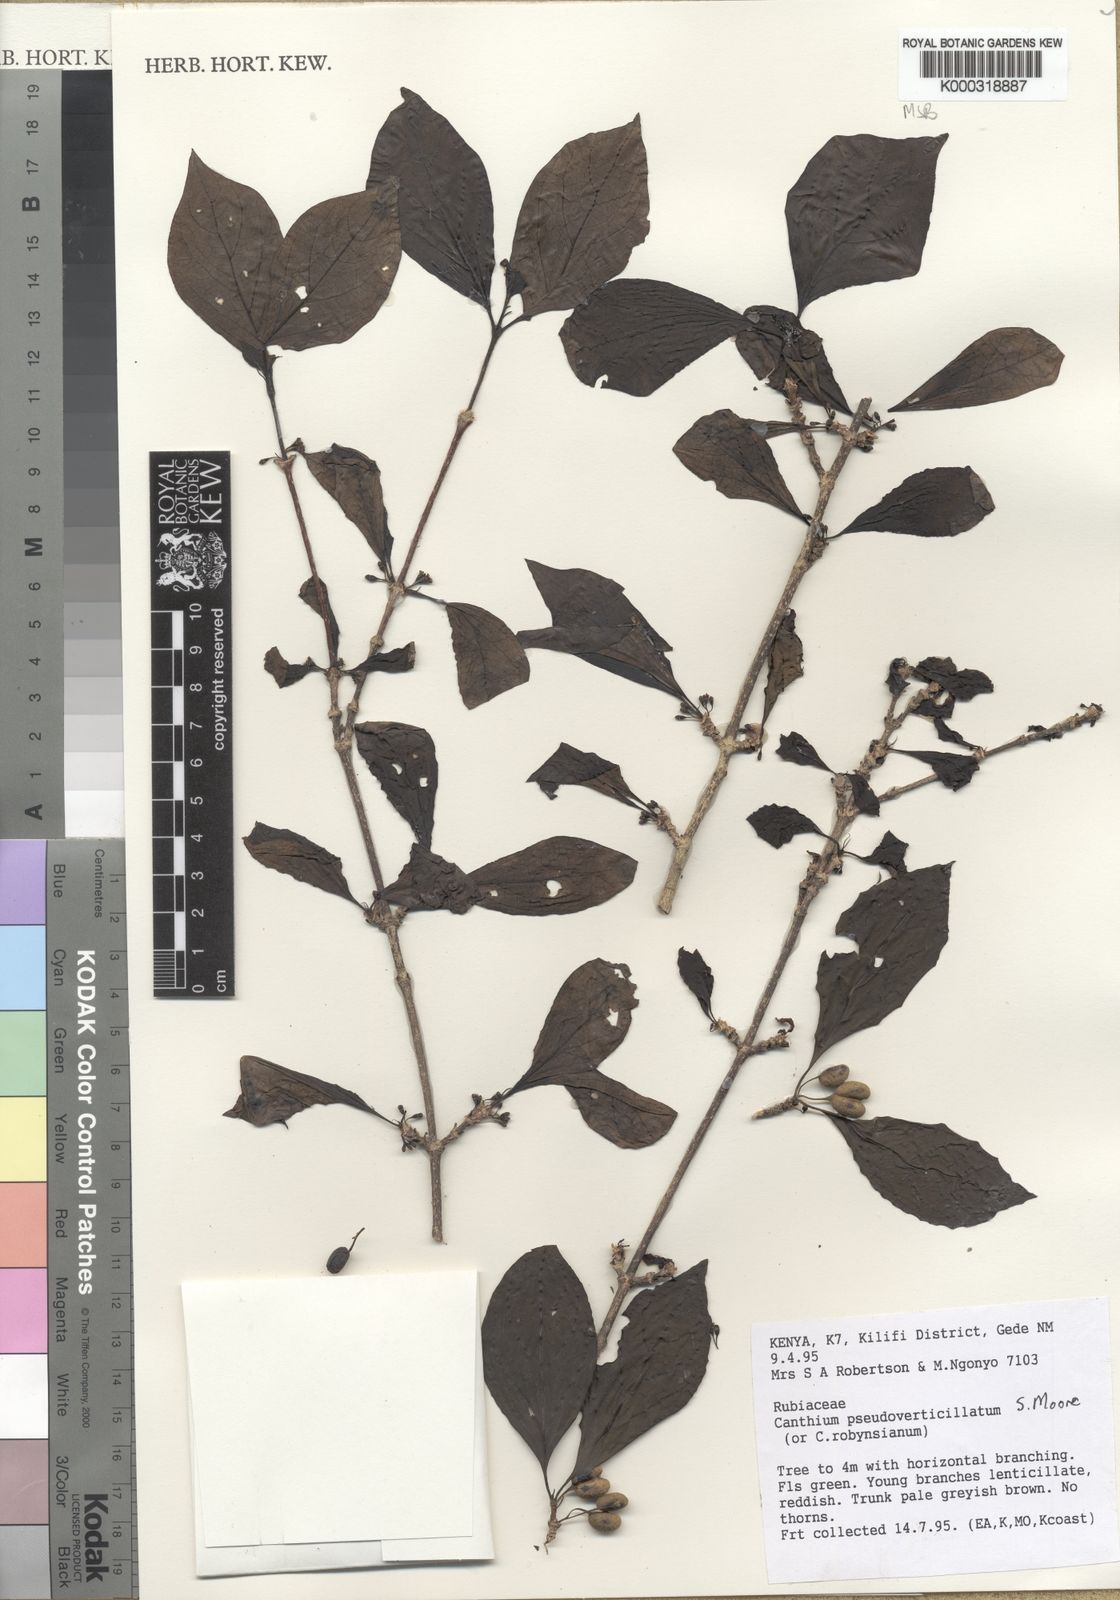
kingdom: Plantae
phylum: Tracheophyta
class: Magnoliopsida
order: Gentianales
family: Rubiaceae
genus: Afrocanthium
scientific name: Afrocanthium pseudoverticillatum
